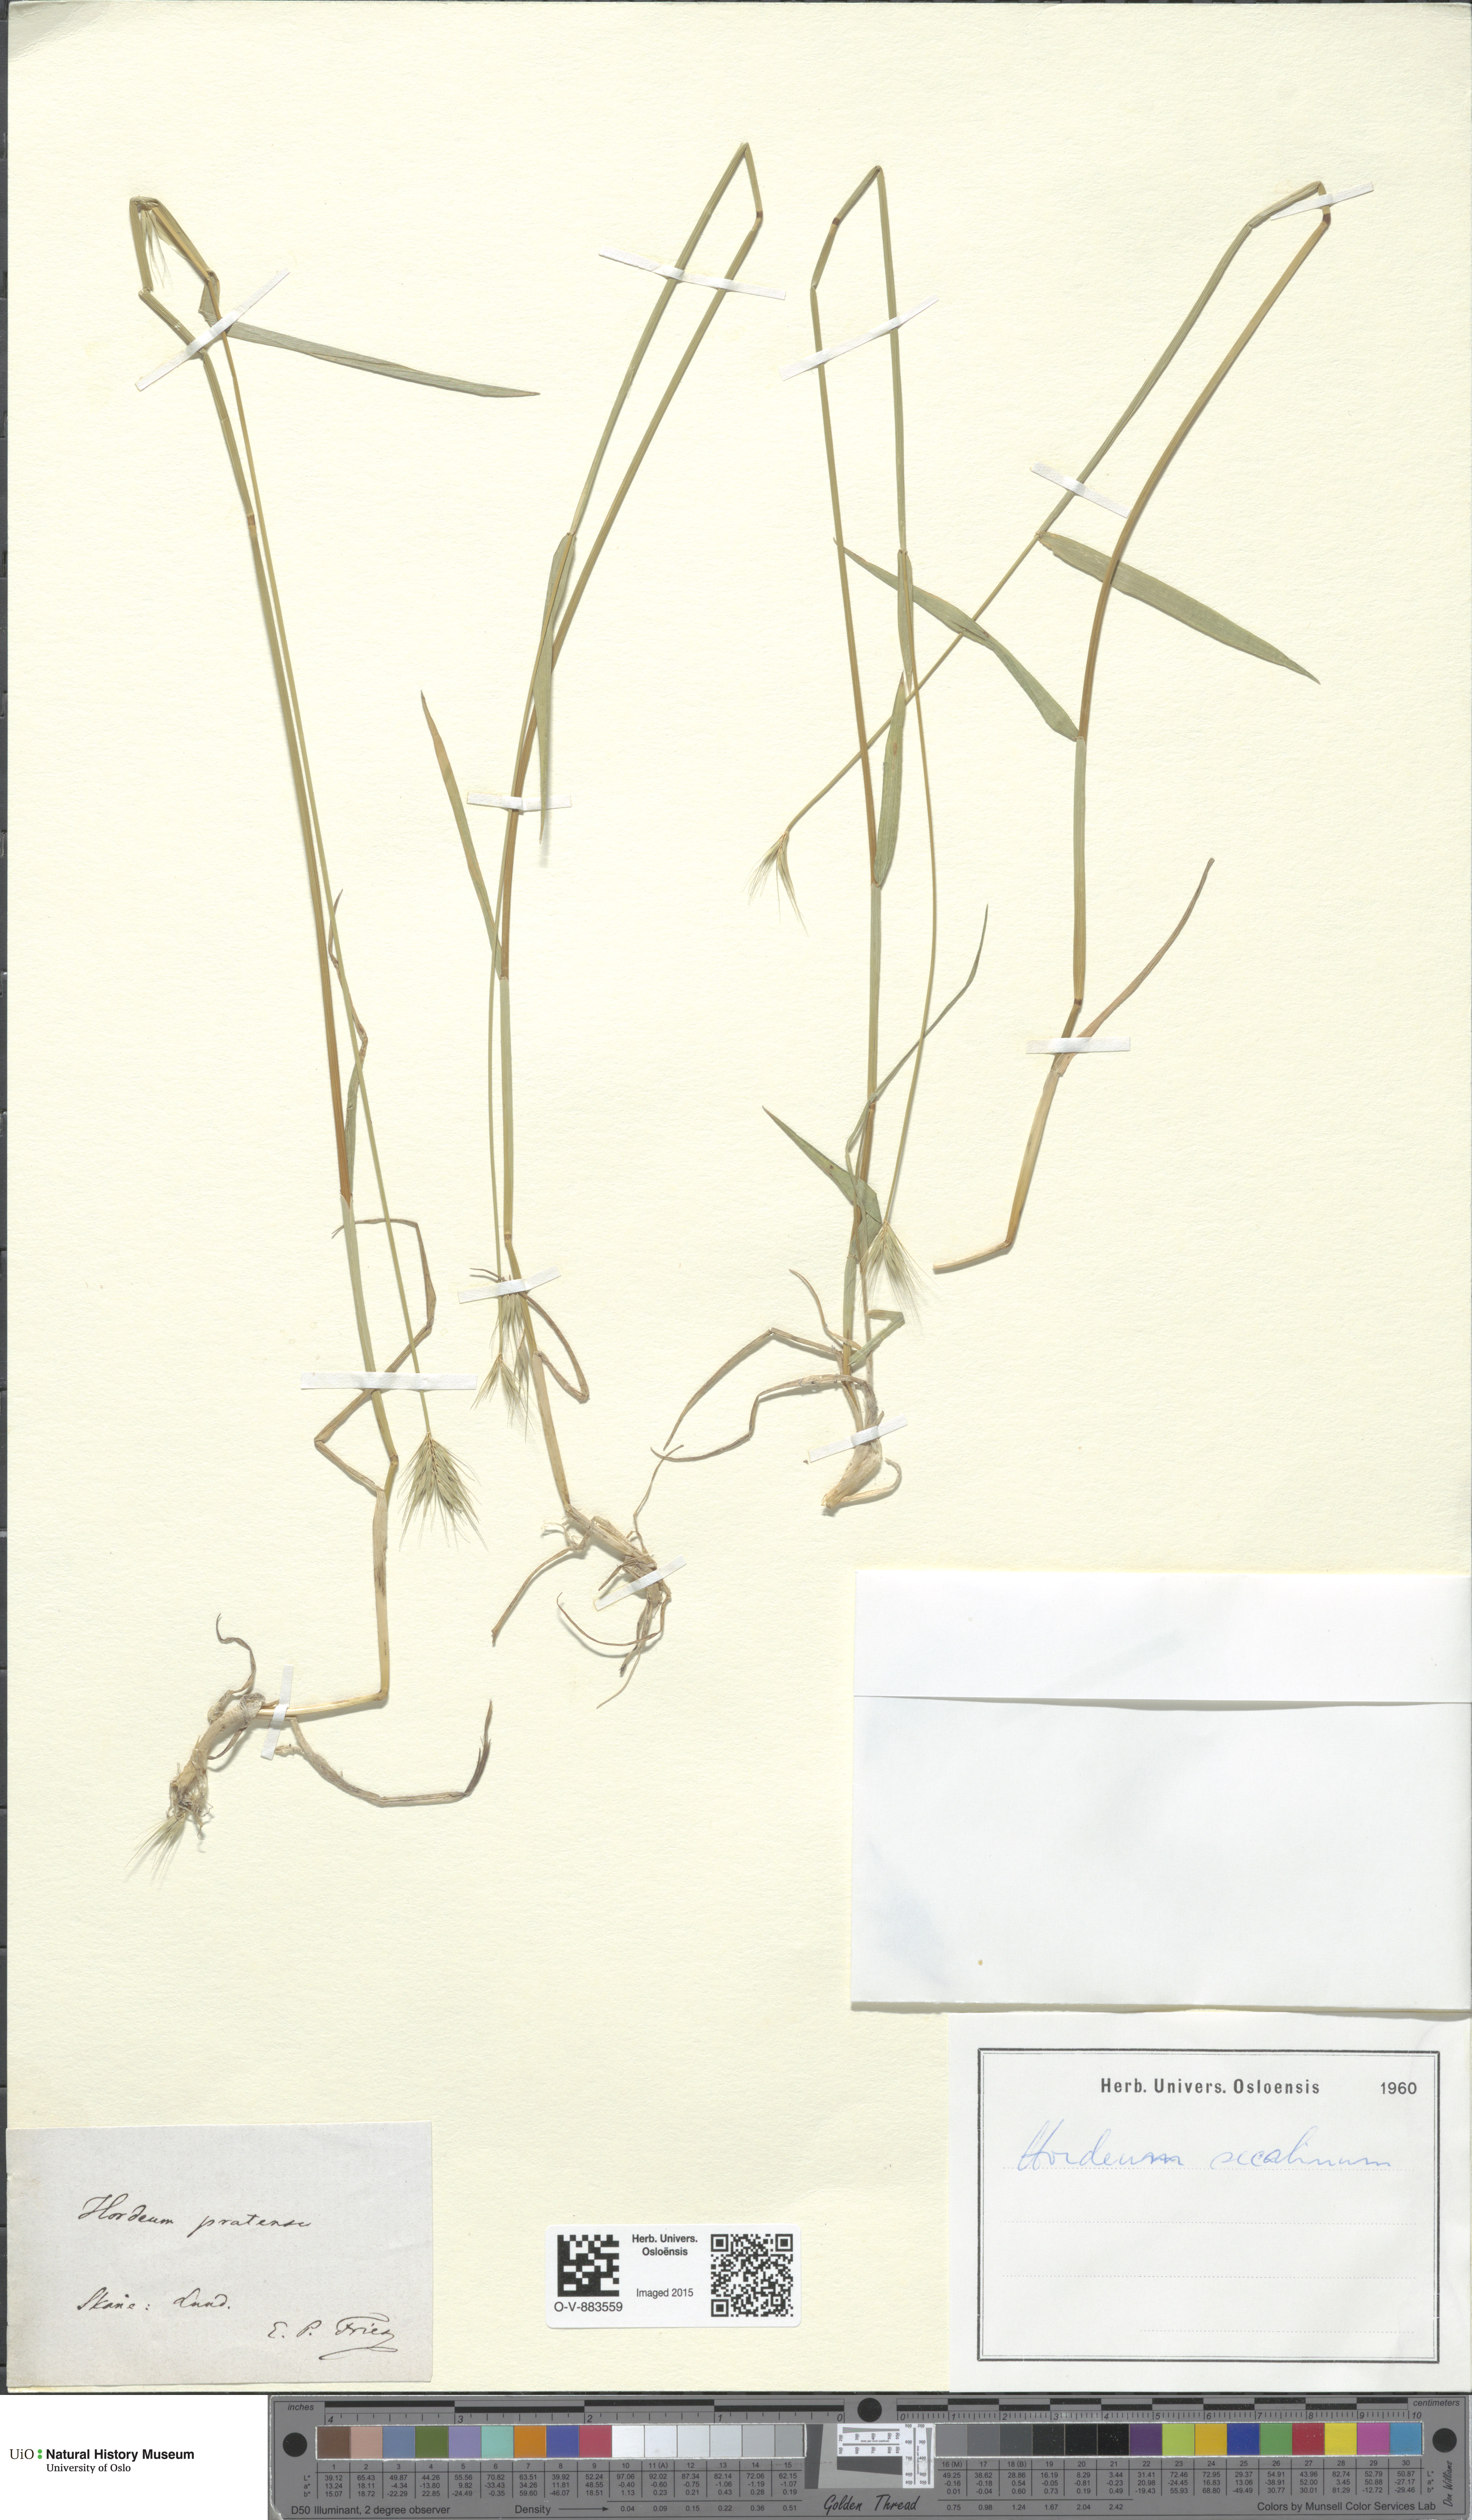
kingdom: Plantae
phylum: Tracheophyta
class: Liliopsida
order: Poales
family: Poaceae
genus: Hordeum
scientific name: Hordeum secalinum
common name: Meadow barley
